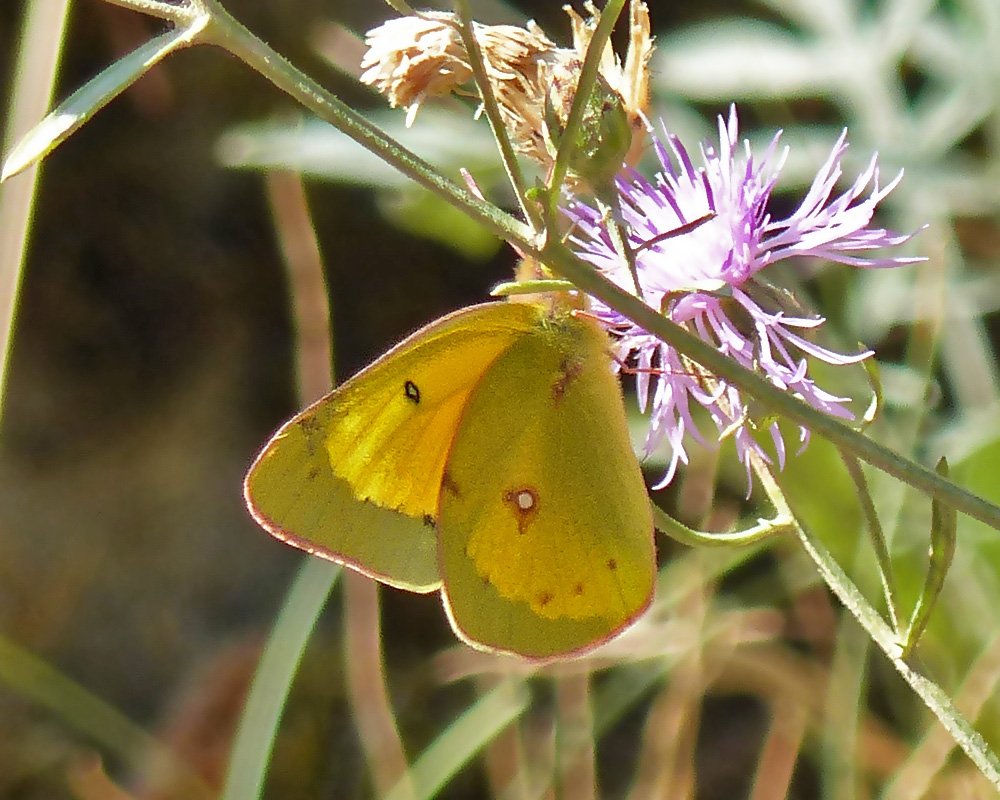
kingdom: Animalia
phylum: Arthropoda
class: Insecta
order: Lepidoptera
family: Pieridae
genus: Colias
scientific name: Colias eurytheme
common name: Orange Sulphur
